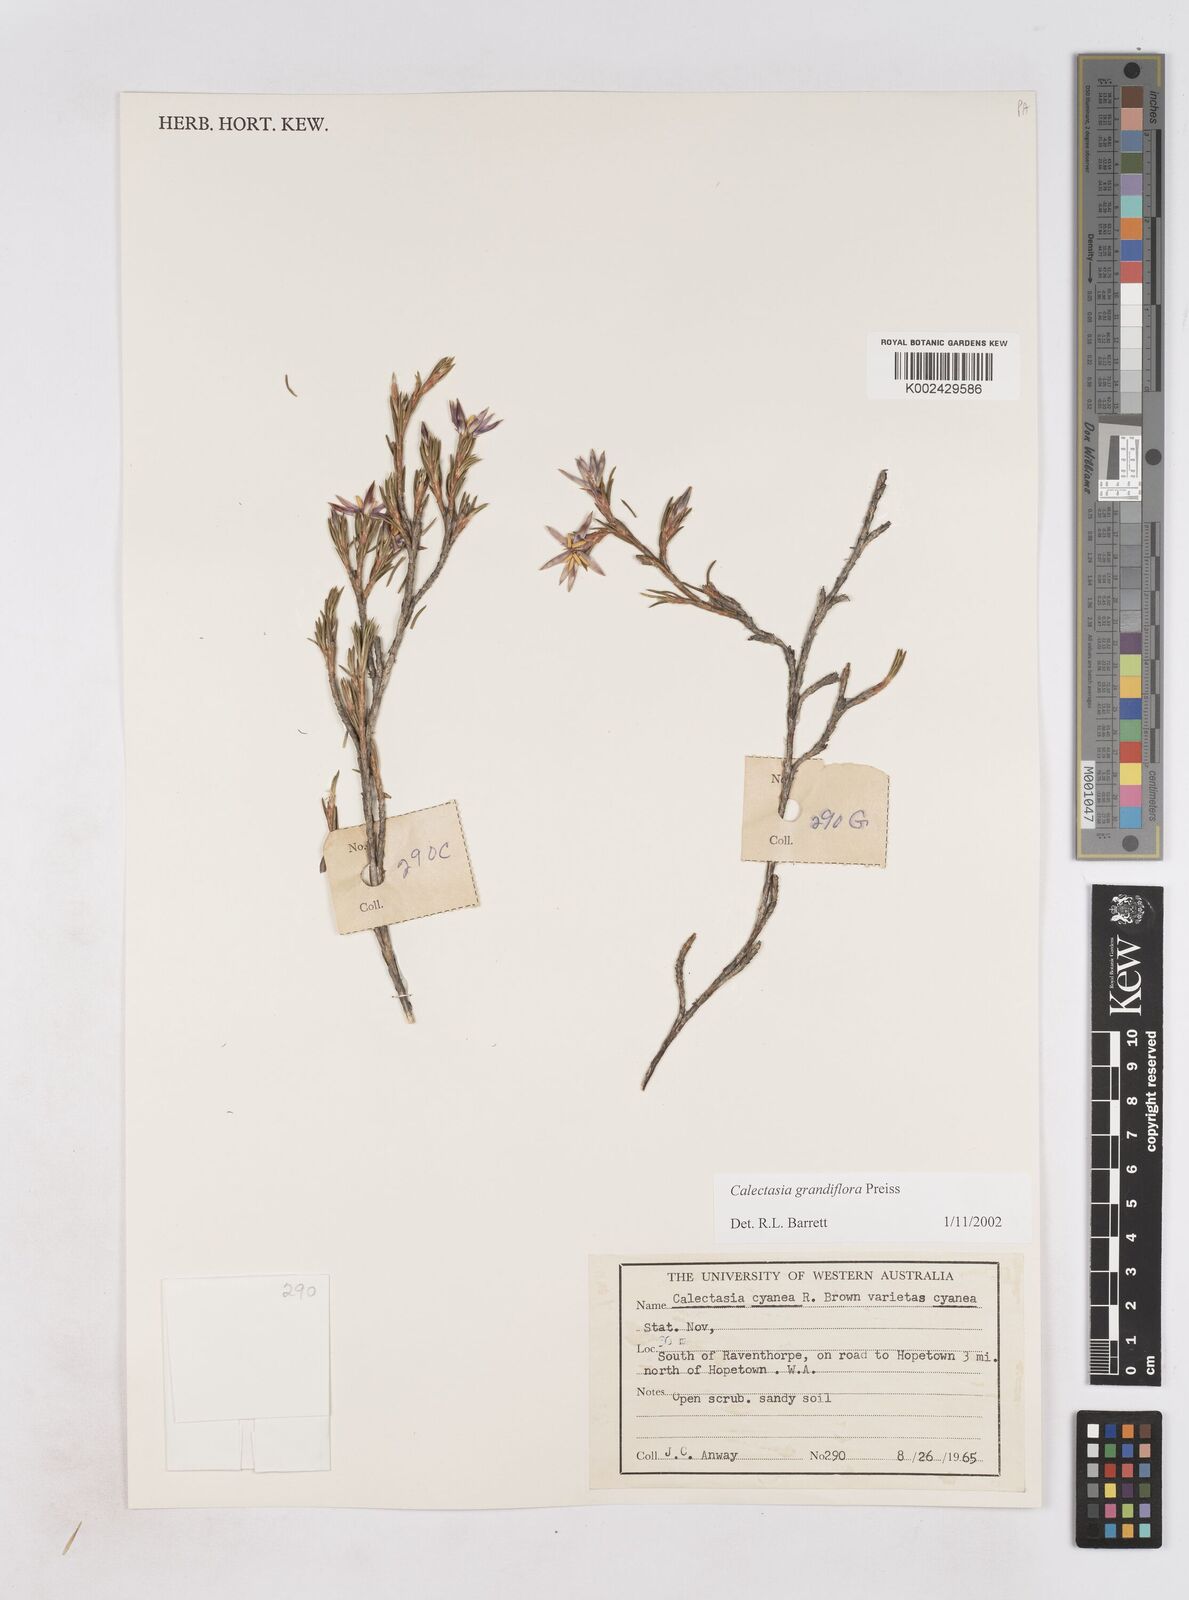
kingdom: Plantae
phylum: Tracheophyta
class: Liliopsida
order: Arecales
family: Dasypogonaceae
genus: Calectasia
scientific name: Calectasia grandiflora
